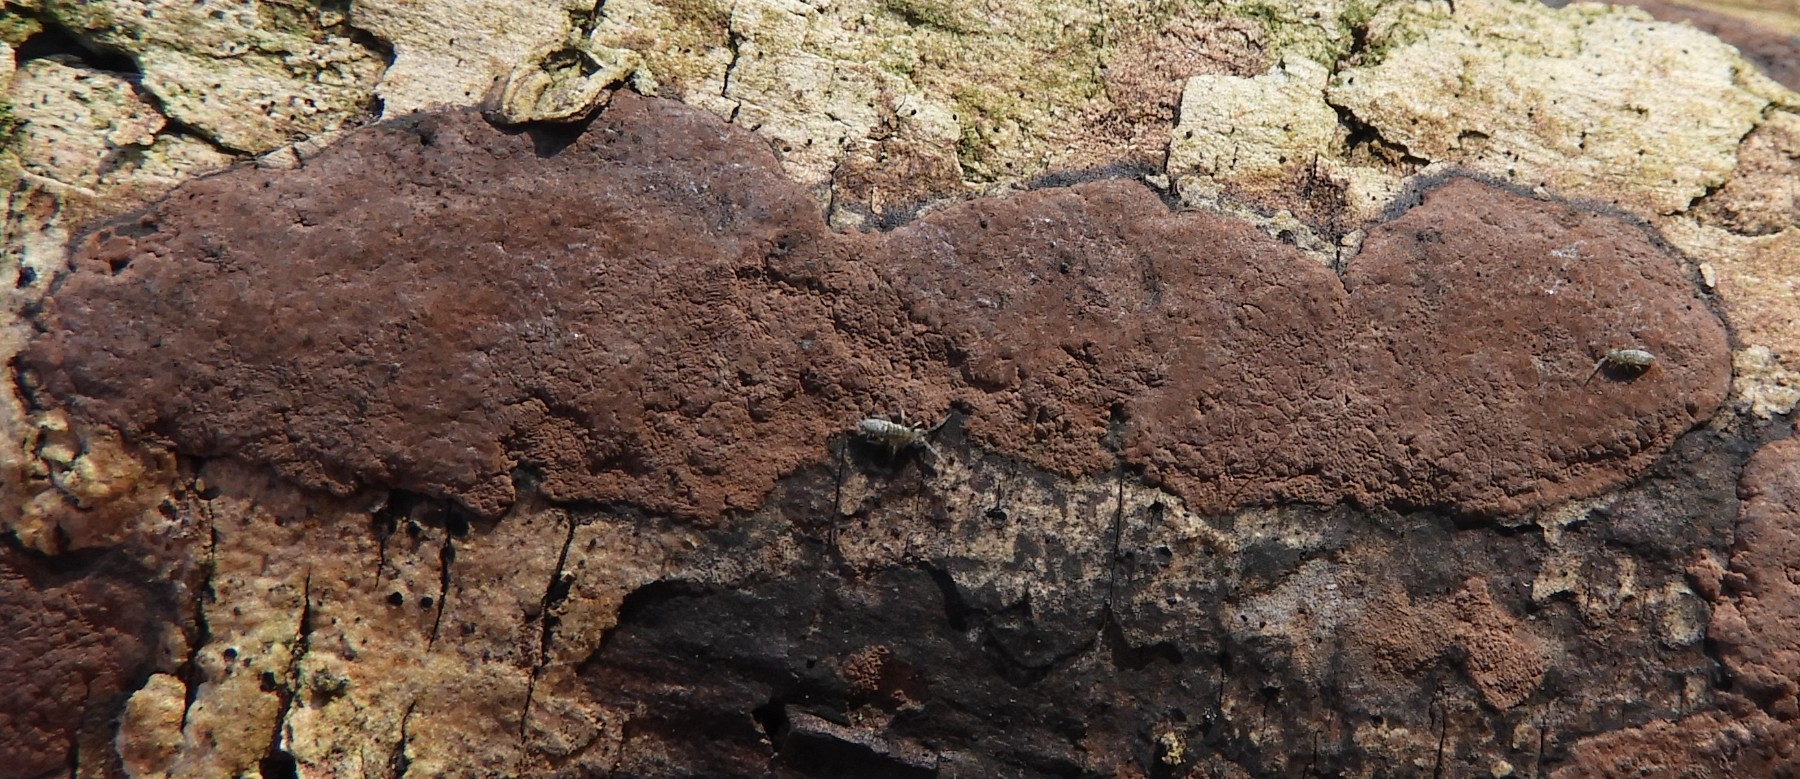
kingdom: Fungi
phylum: Ascomycota
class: Sordariomycetes
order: Xylariales
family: Hypoxylaceae
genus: Hypoxylon
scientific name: Hypoxylon petriniae
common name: nedsænket kulbær
